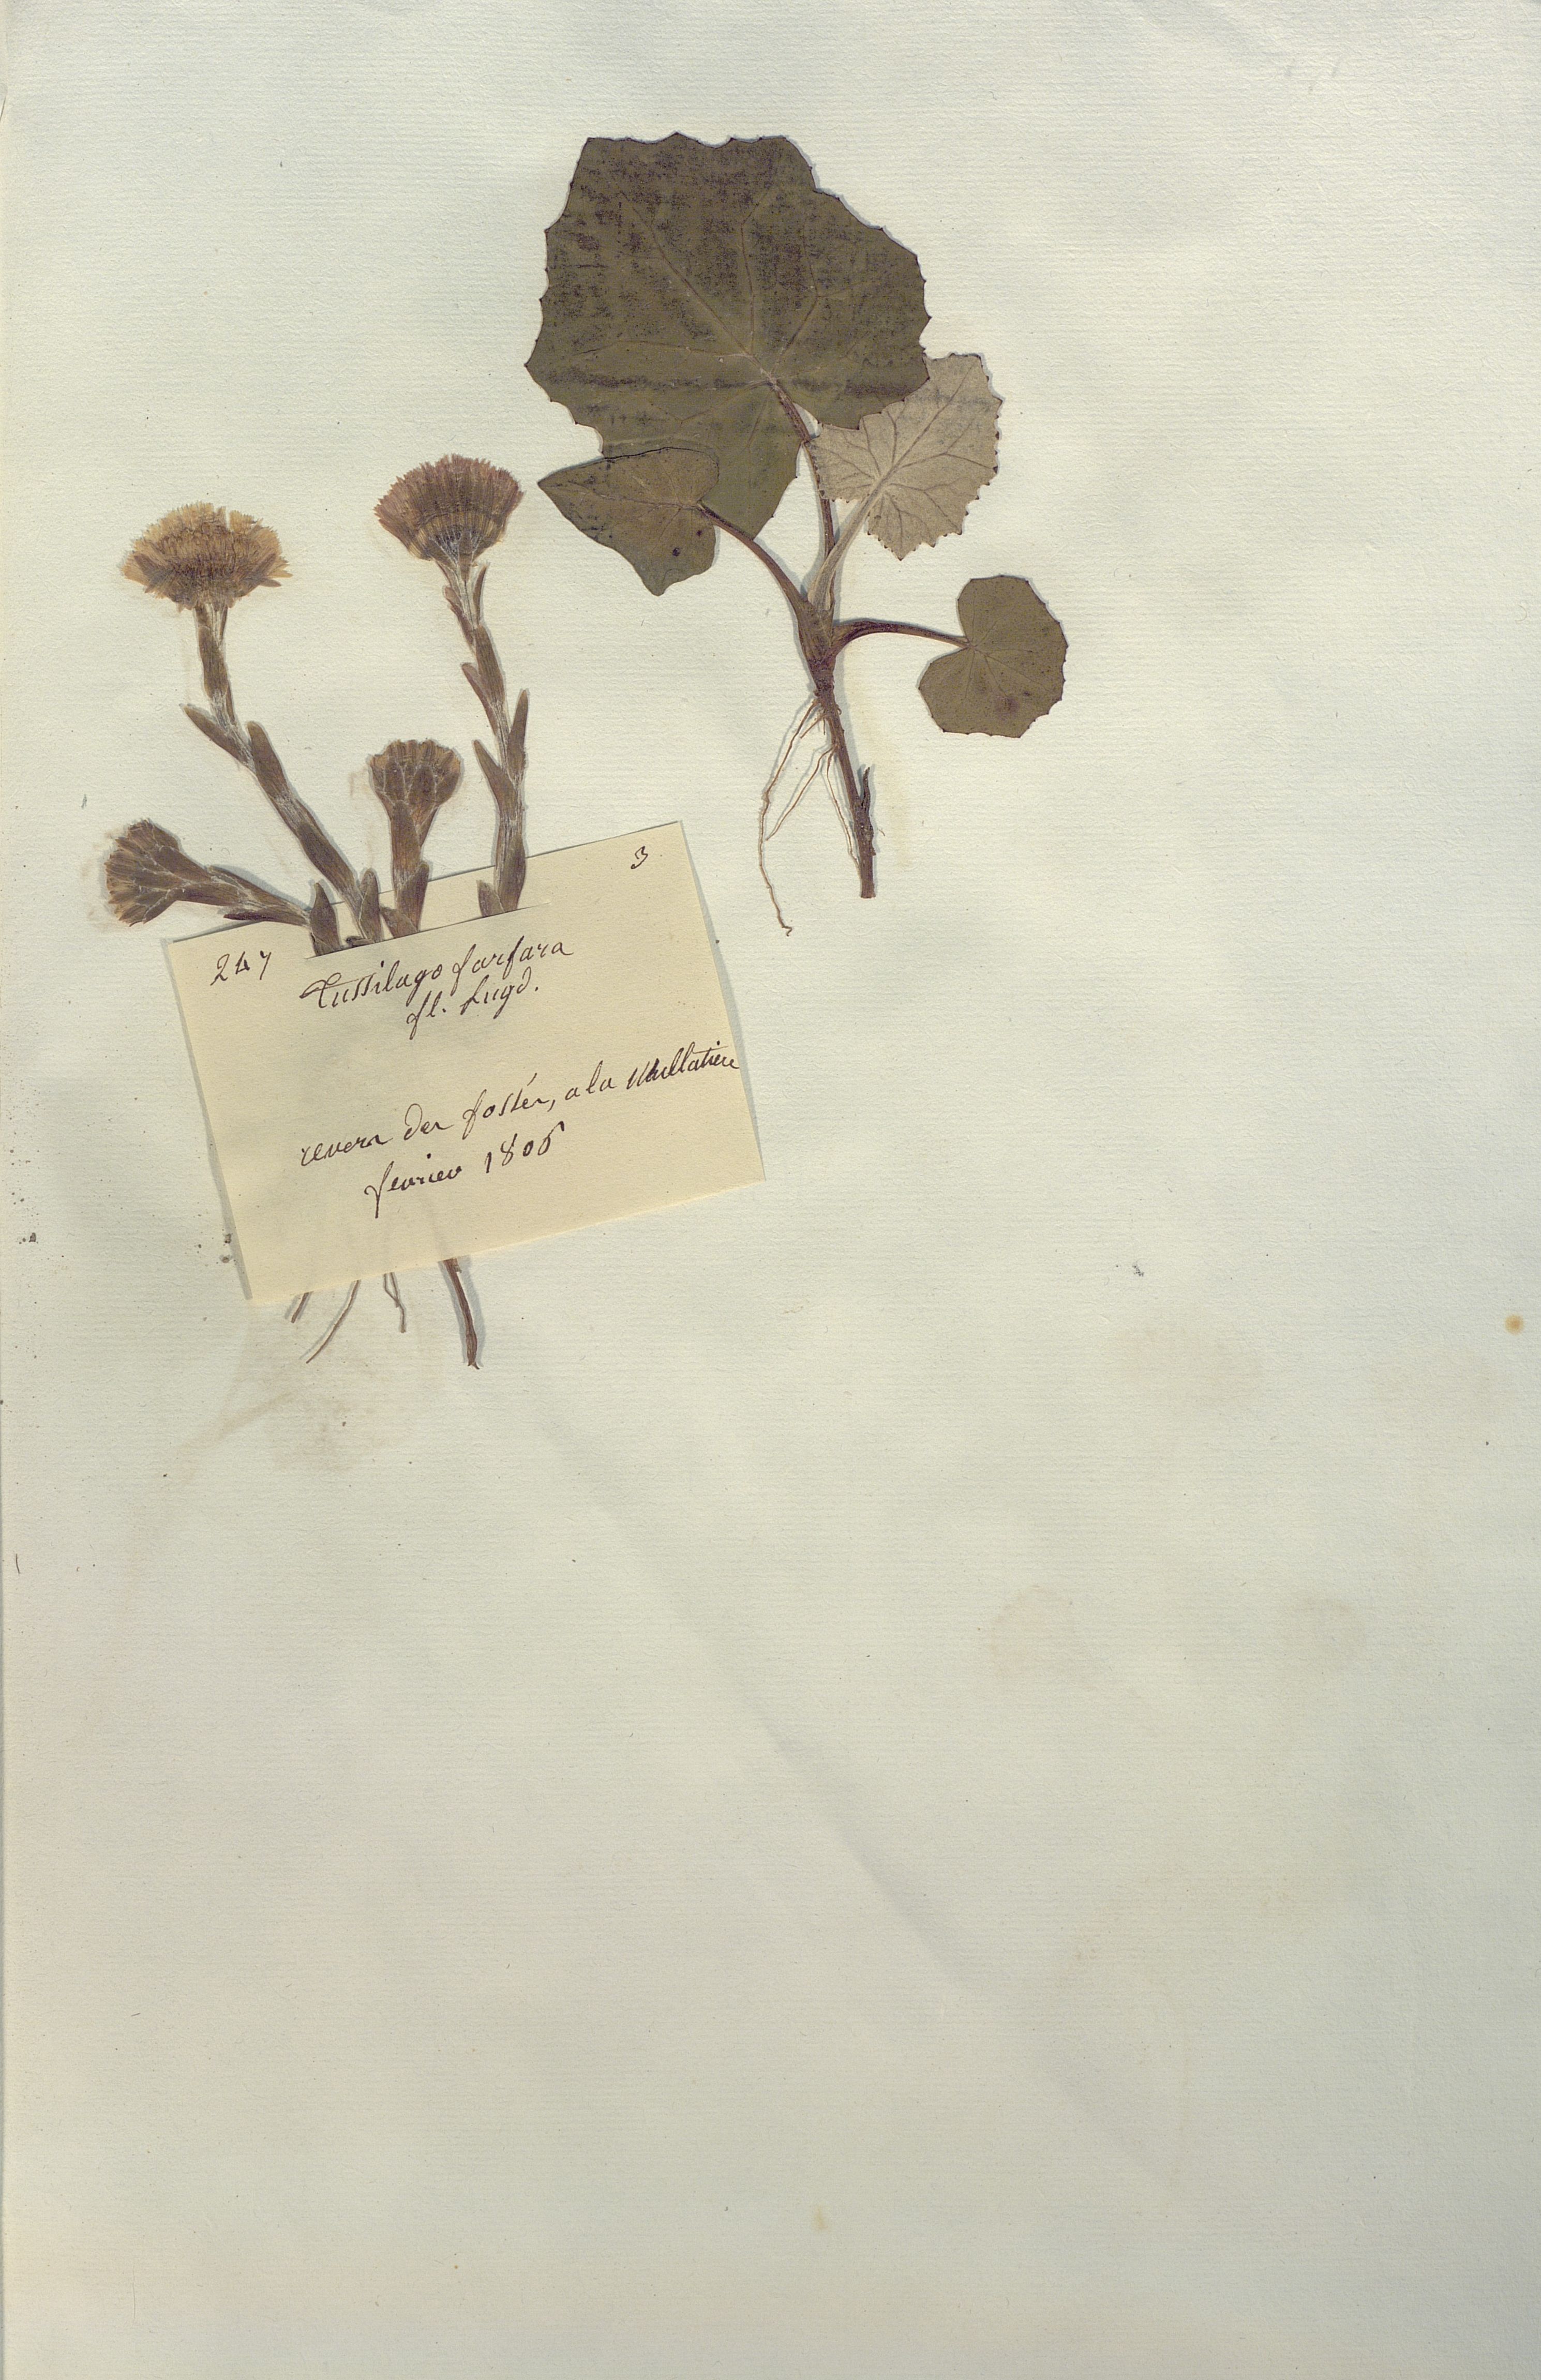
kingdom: Plantae
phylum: Tracheophyta
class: Magnoliopsida
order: Asterales
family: Asteraceae
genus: Tussilago
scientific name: Tussilago farfara
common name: Coltsfoot
